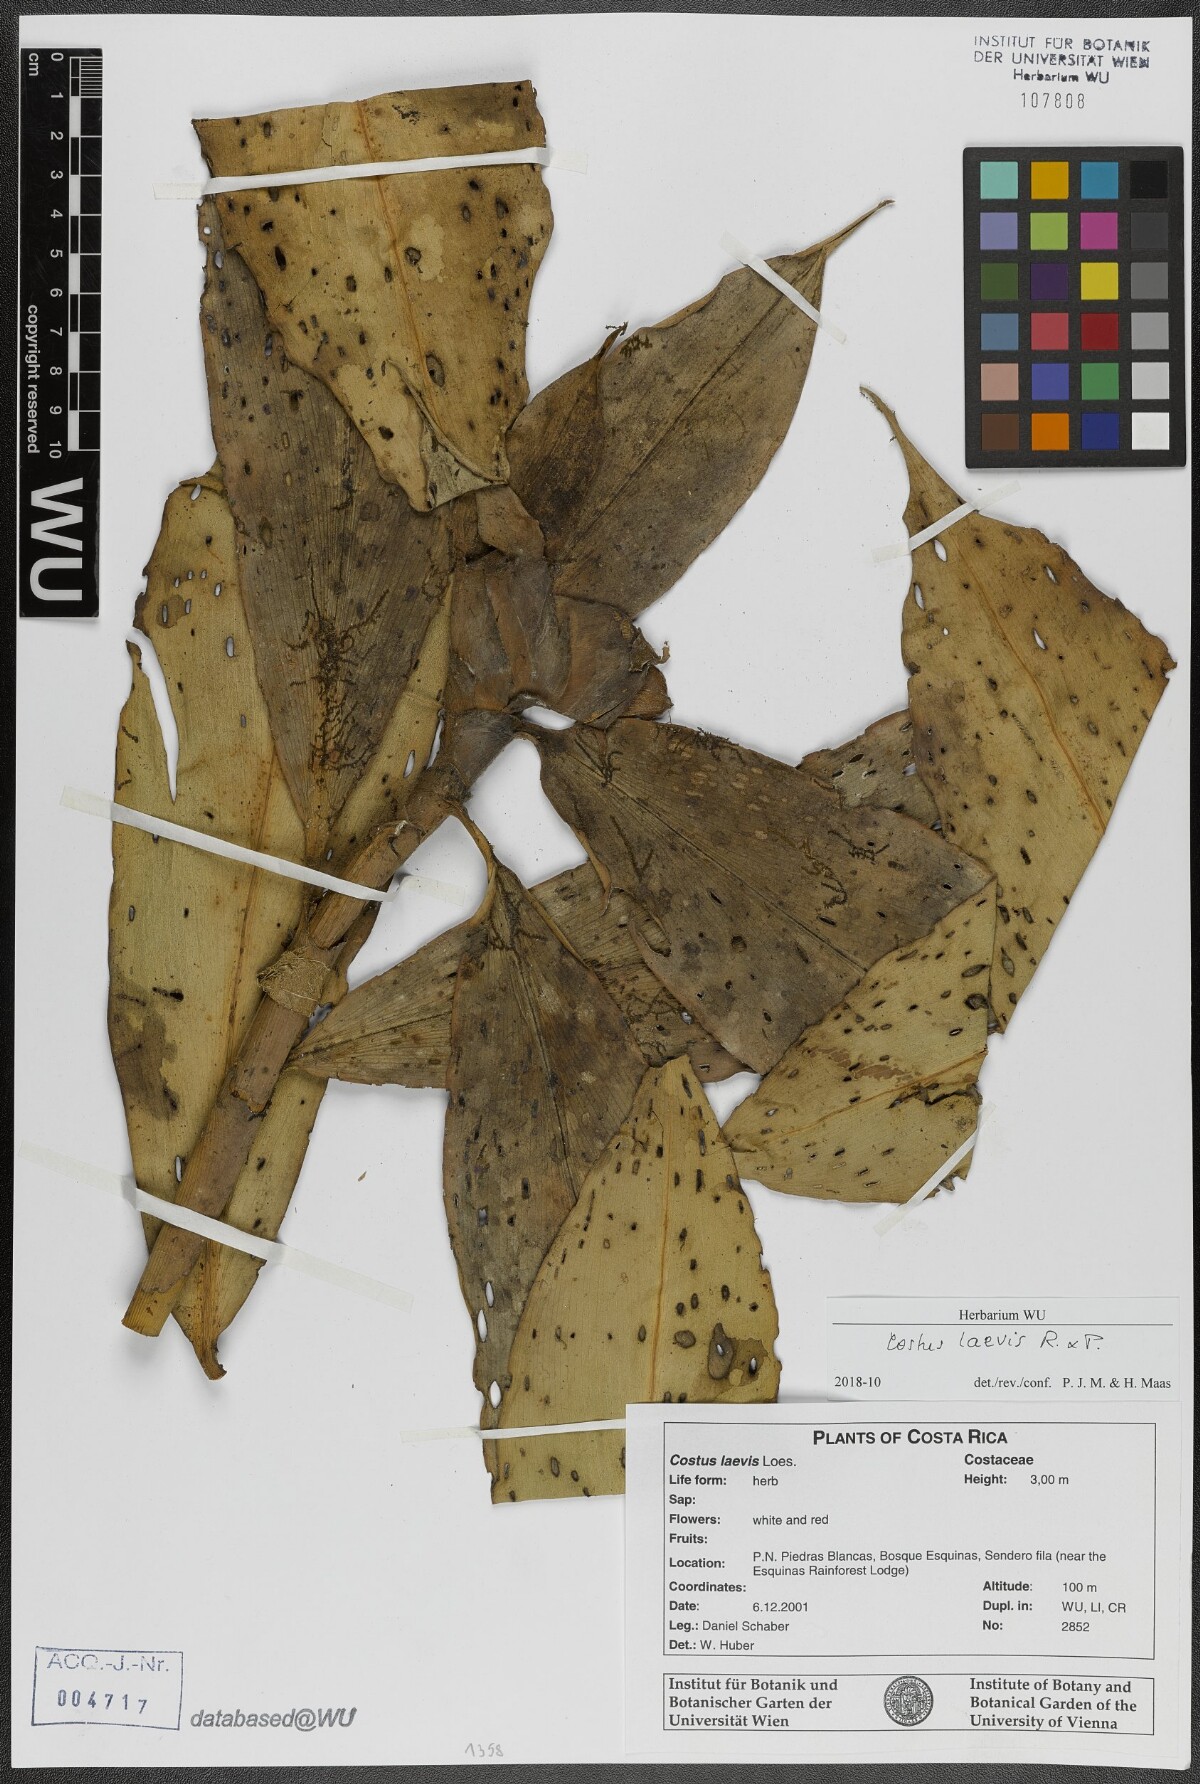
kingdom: Plantae
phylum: Tracheophyta
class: Liliopsida
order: Zingiberales
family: Costaceae
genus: Costus
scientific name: Costus laevis
